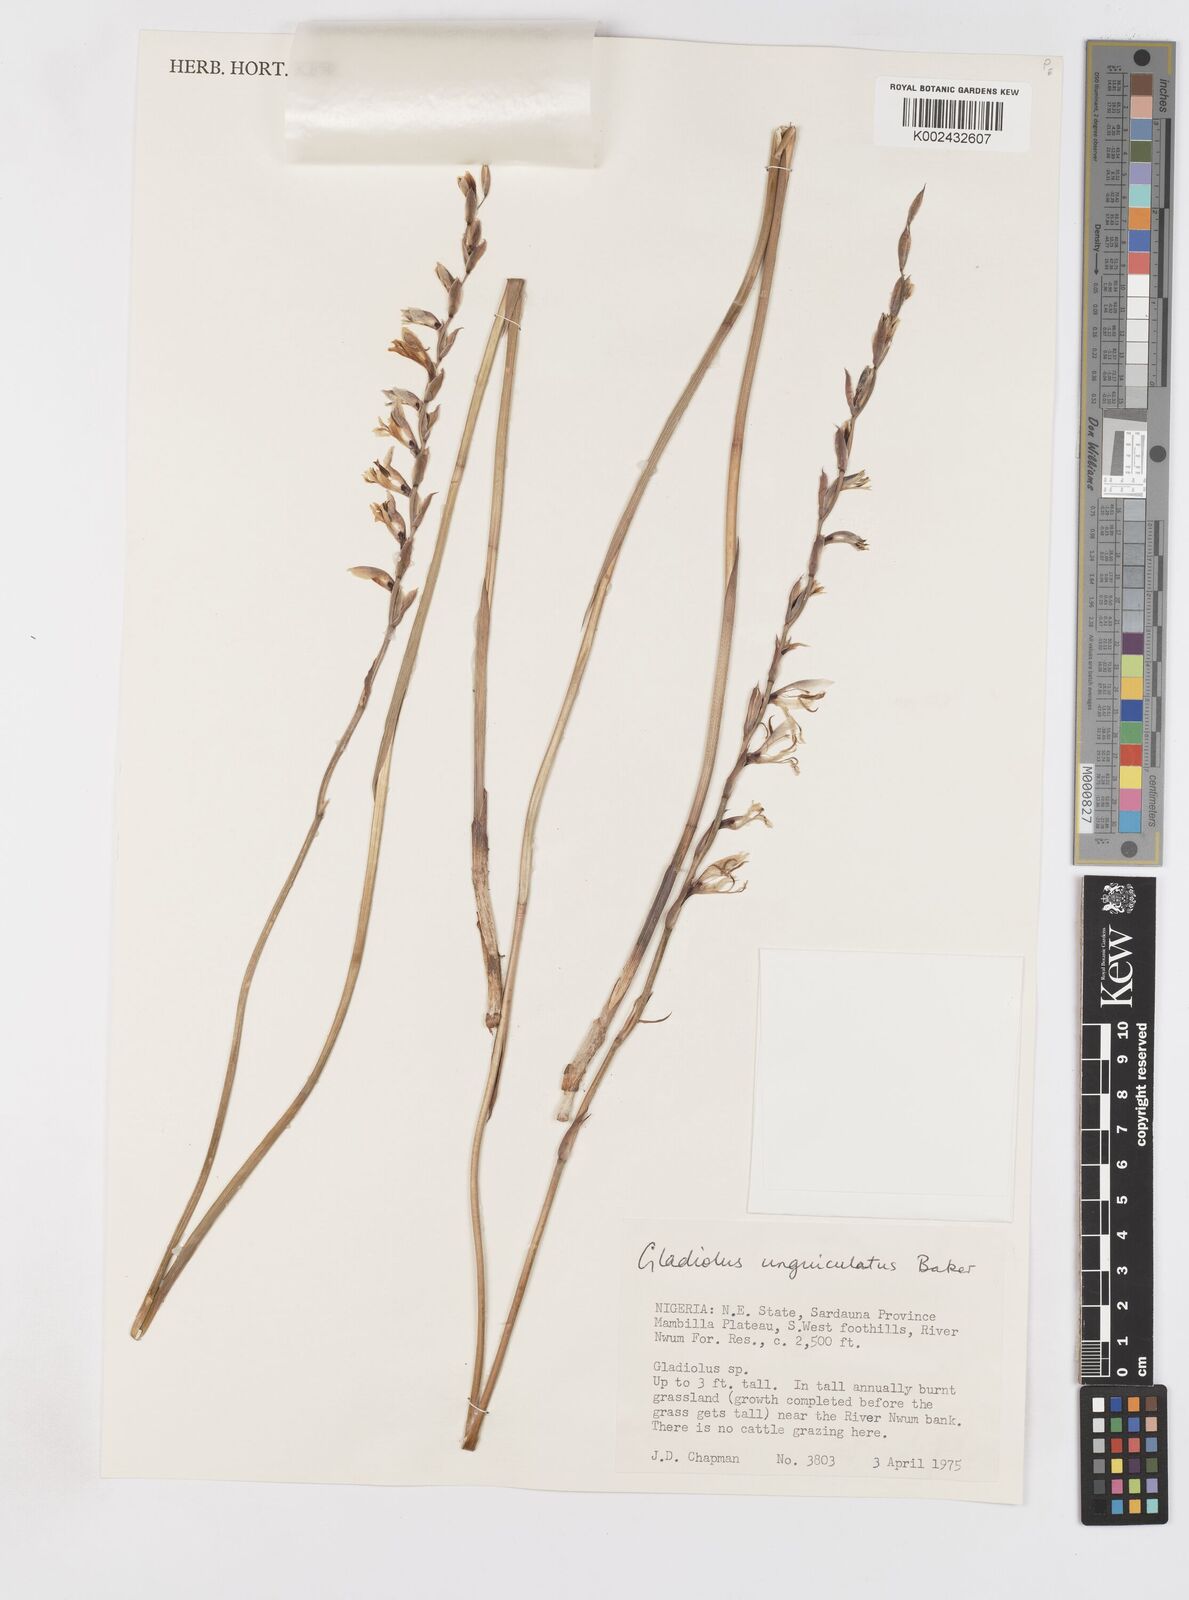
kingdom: Plantae
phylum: Tracheophyta
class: Liliopsida
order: Asparagales
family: Iridaceae
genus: Gladiolus
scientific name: Gladiolus unguiculatus
